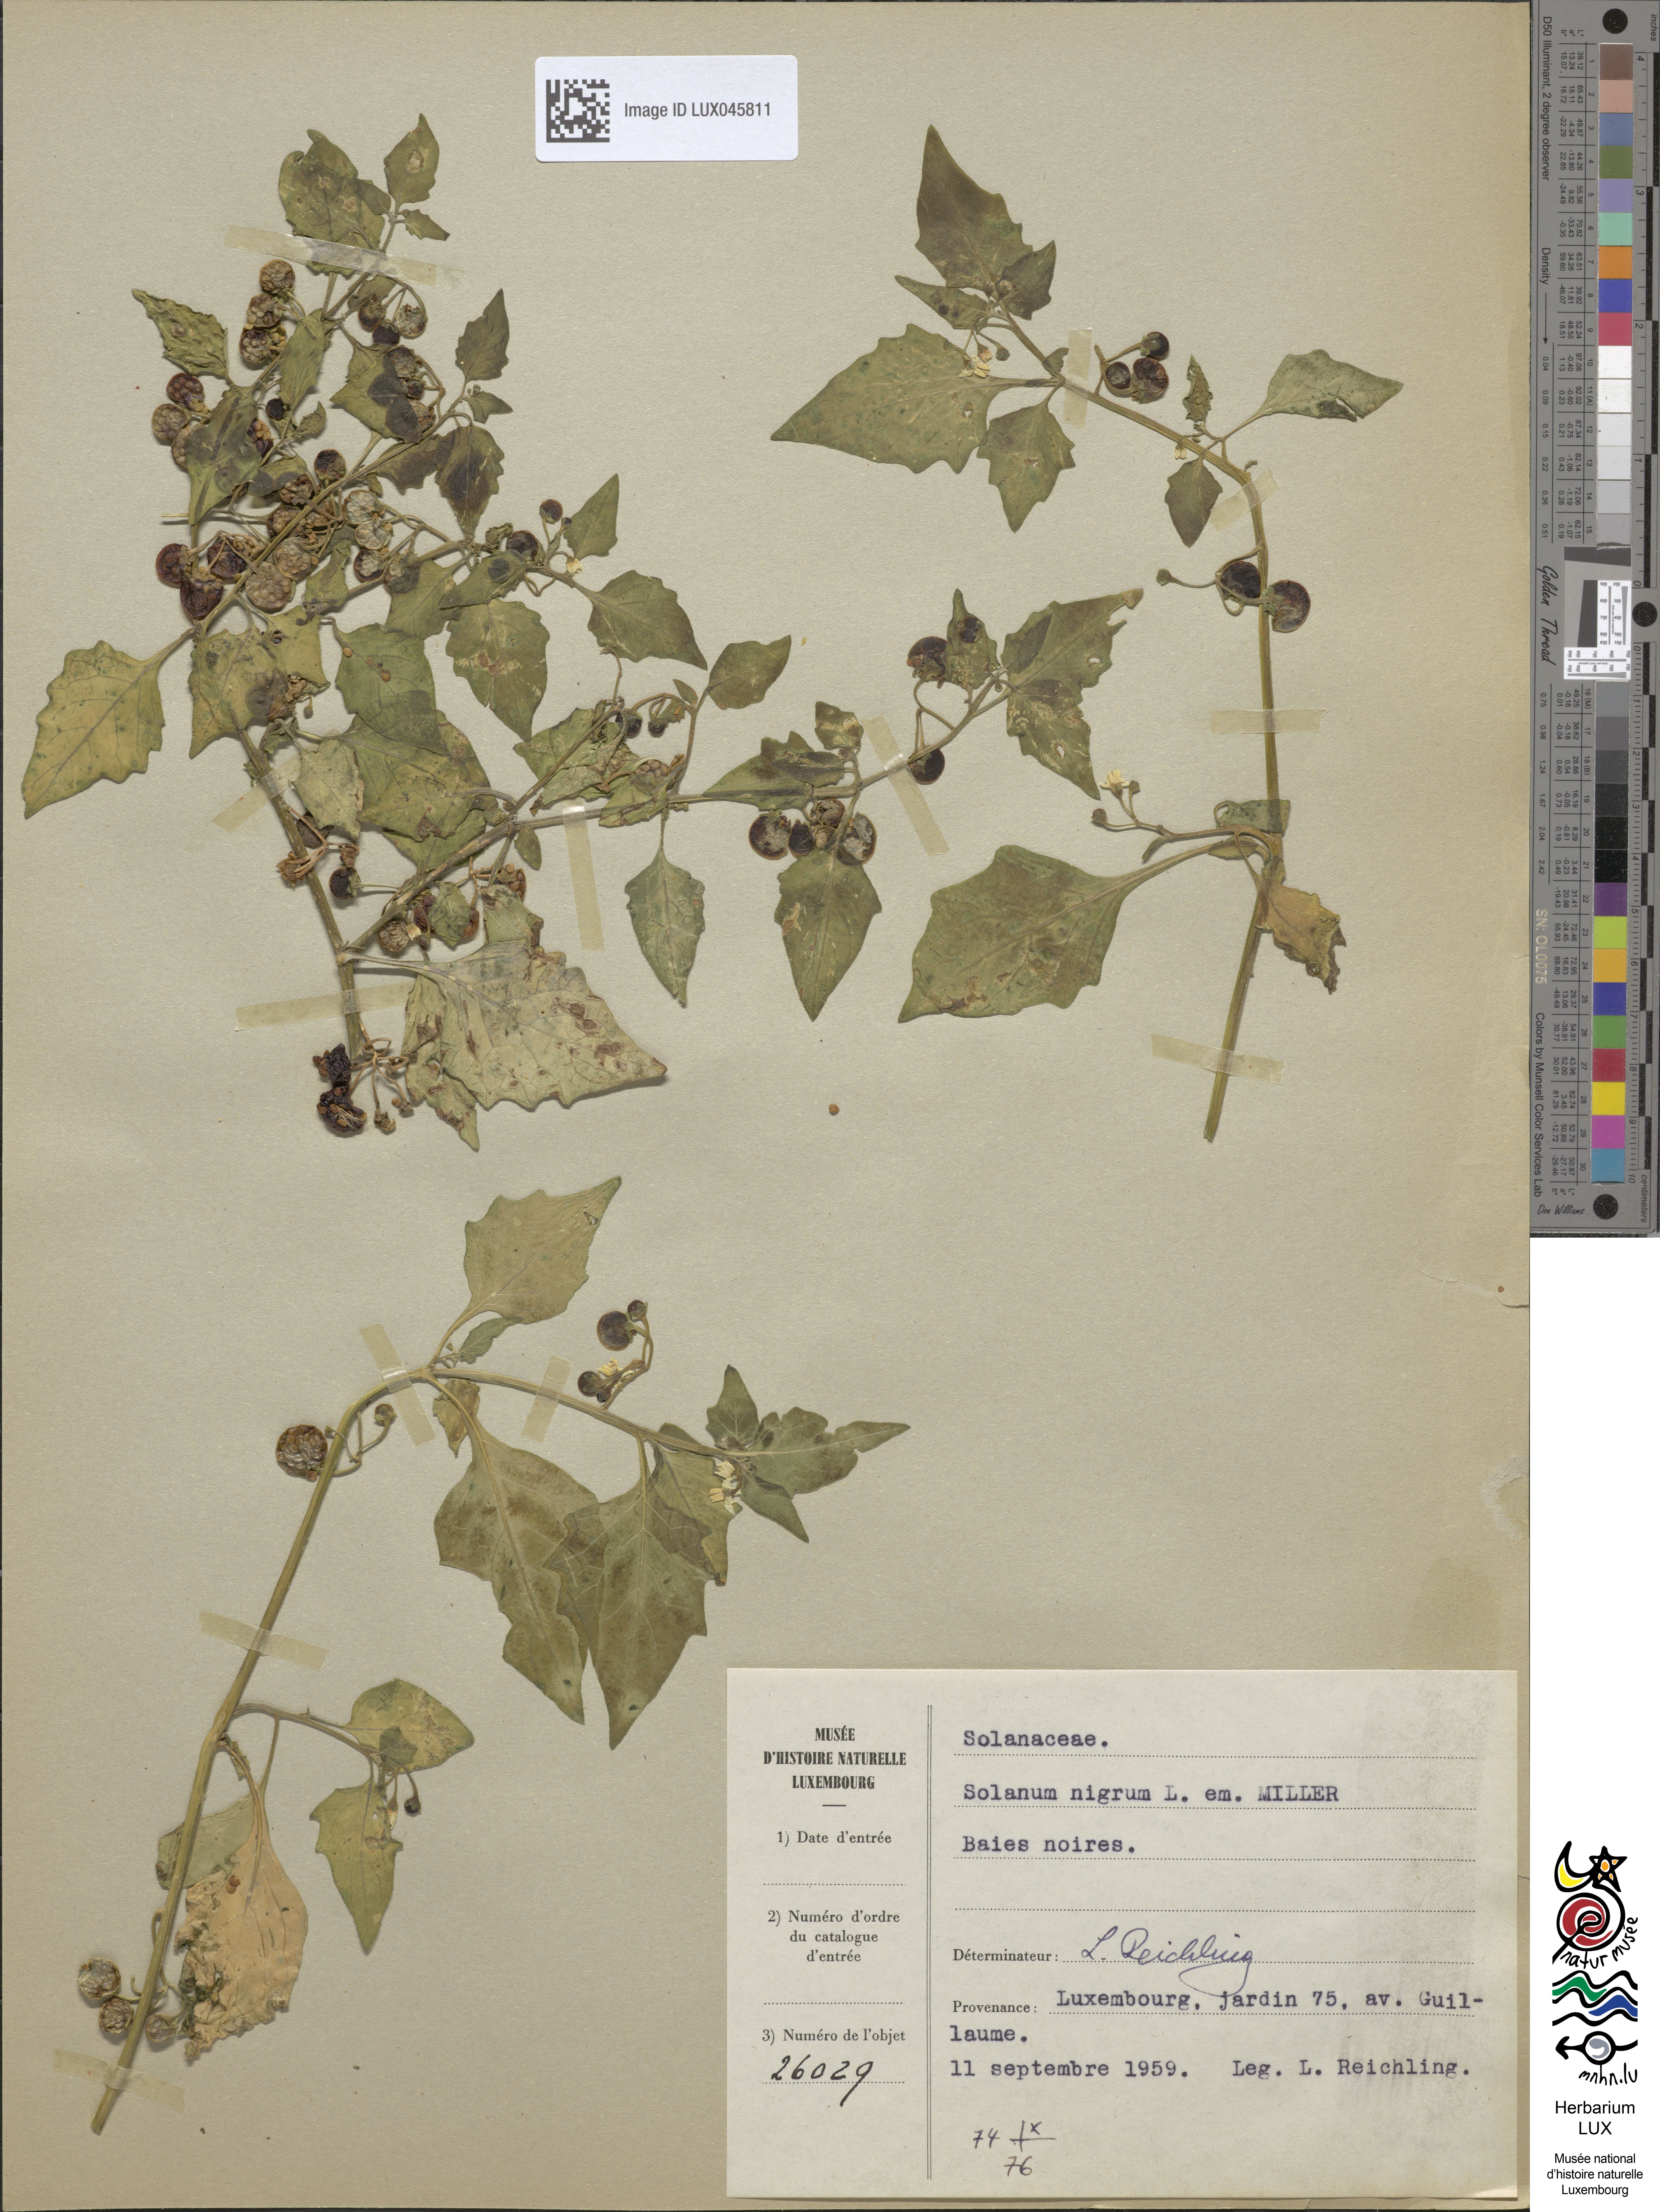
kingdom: Plantae
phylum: Tracheophyta
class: Magnoliopsida
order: Solanales
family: Solanaceae
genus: Solanum
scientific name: Solanum nigrum
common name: Black nightshade
